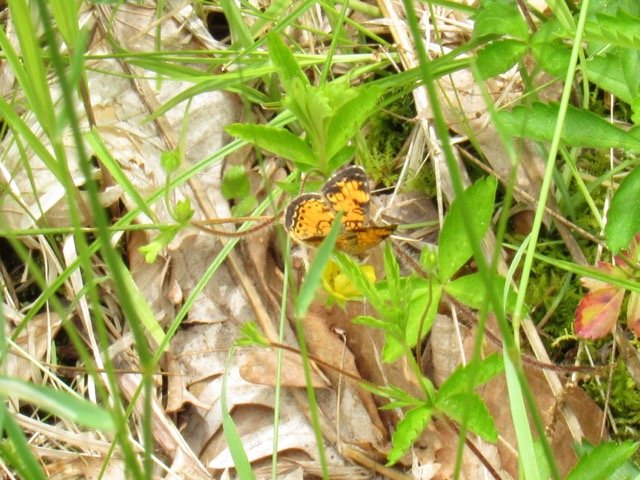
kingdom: Animalia
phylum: Arthropoda
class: Insecta
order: Lepidoptera
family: Nymphalidae
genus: Phyciodes
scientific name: Phyciodes tharos
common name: Pearl Crescent
